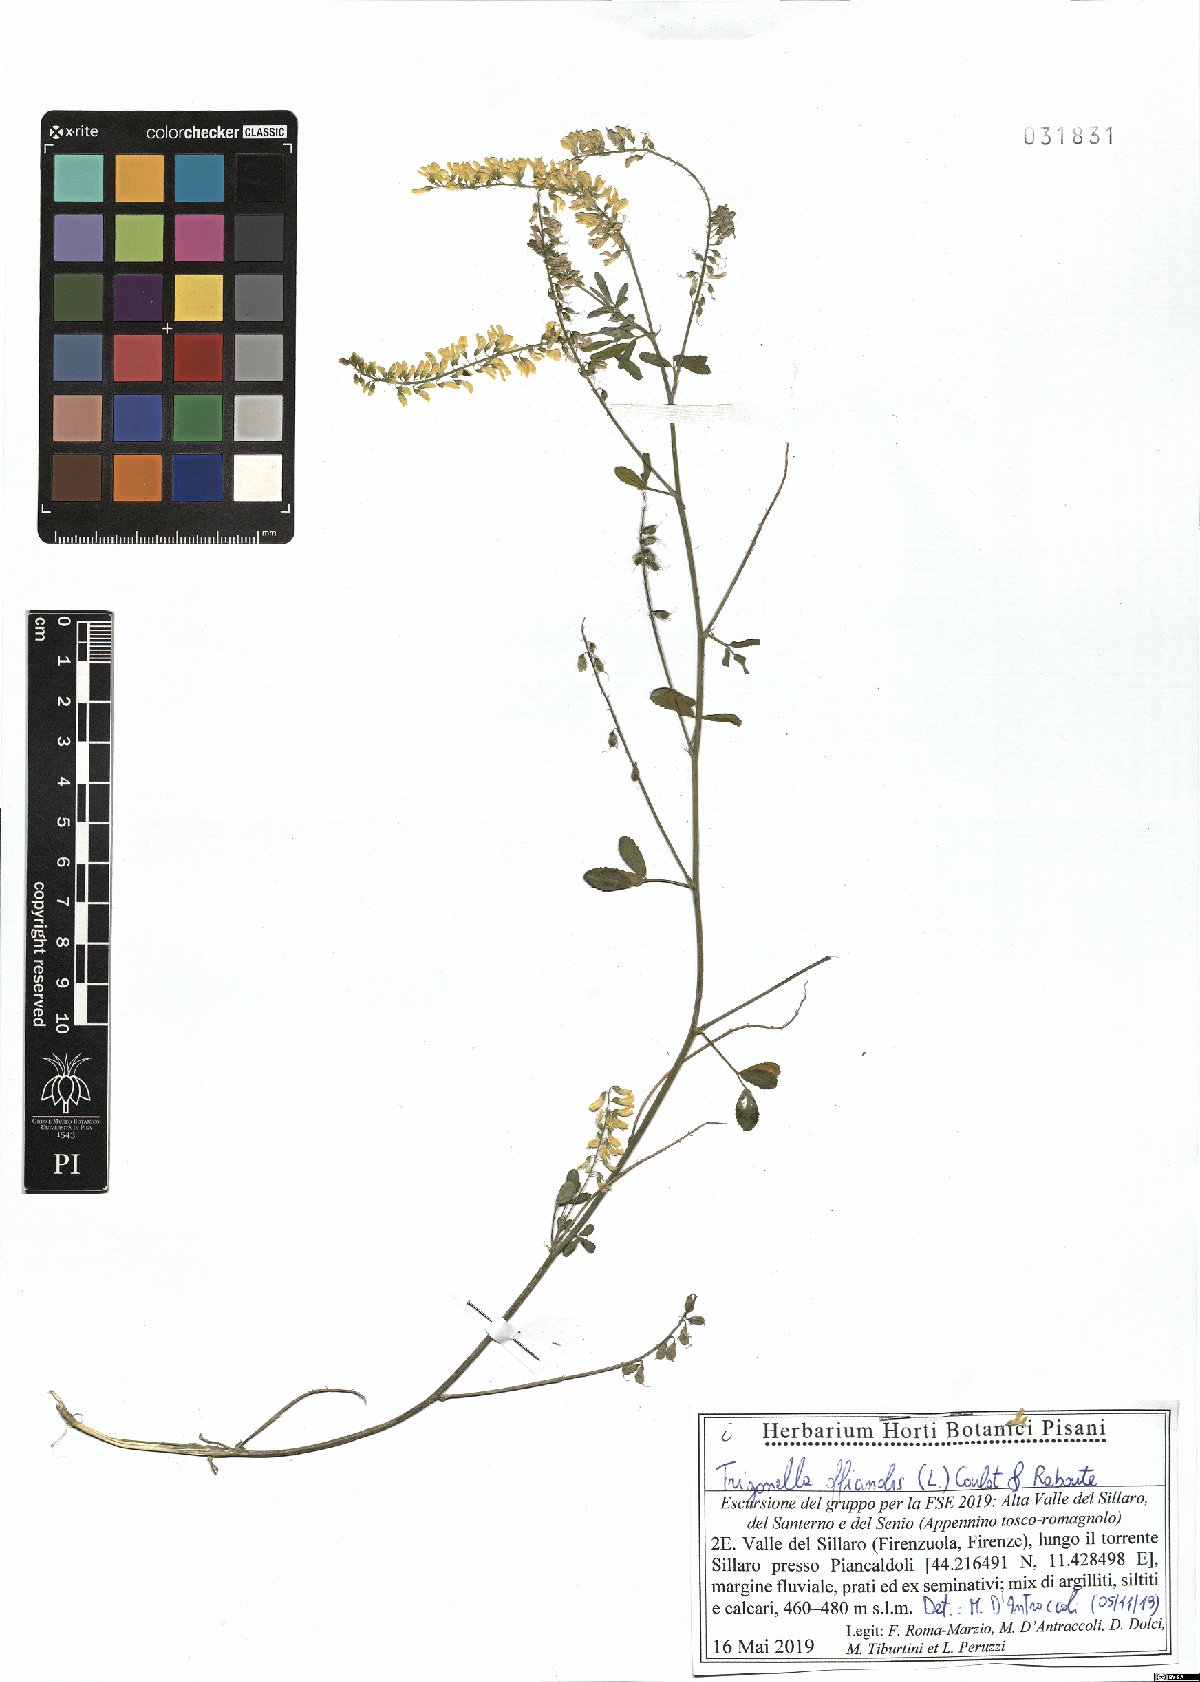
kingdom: Plantae
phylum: Tracheophyta
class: Magnoliopsida
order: Fabales
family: Fabaceae
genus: Melilotus
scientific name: Melilotus officinalis
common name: Sweetclover
